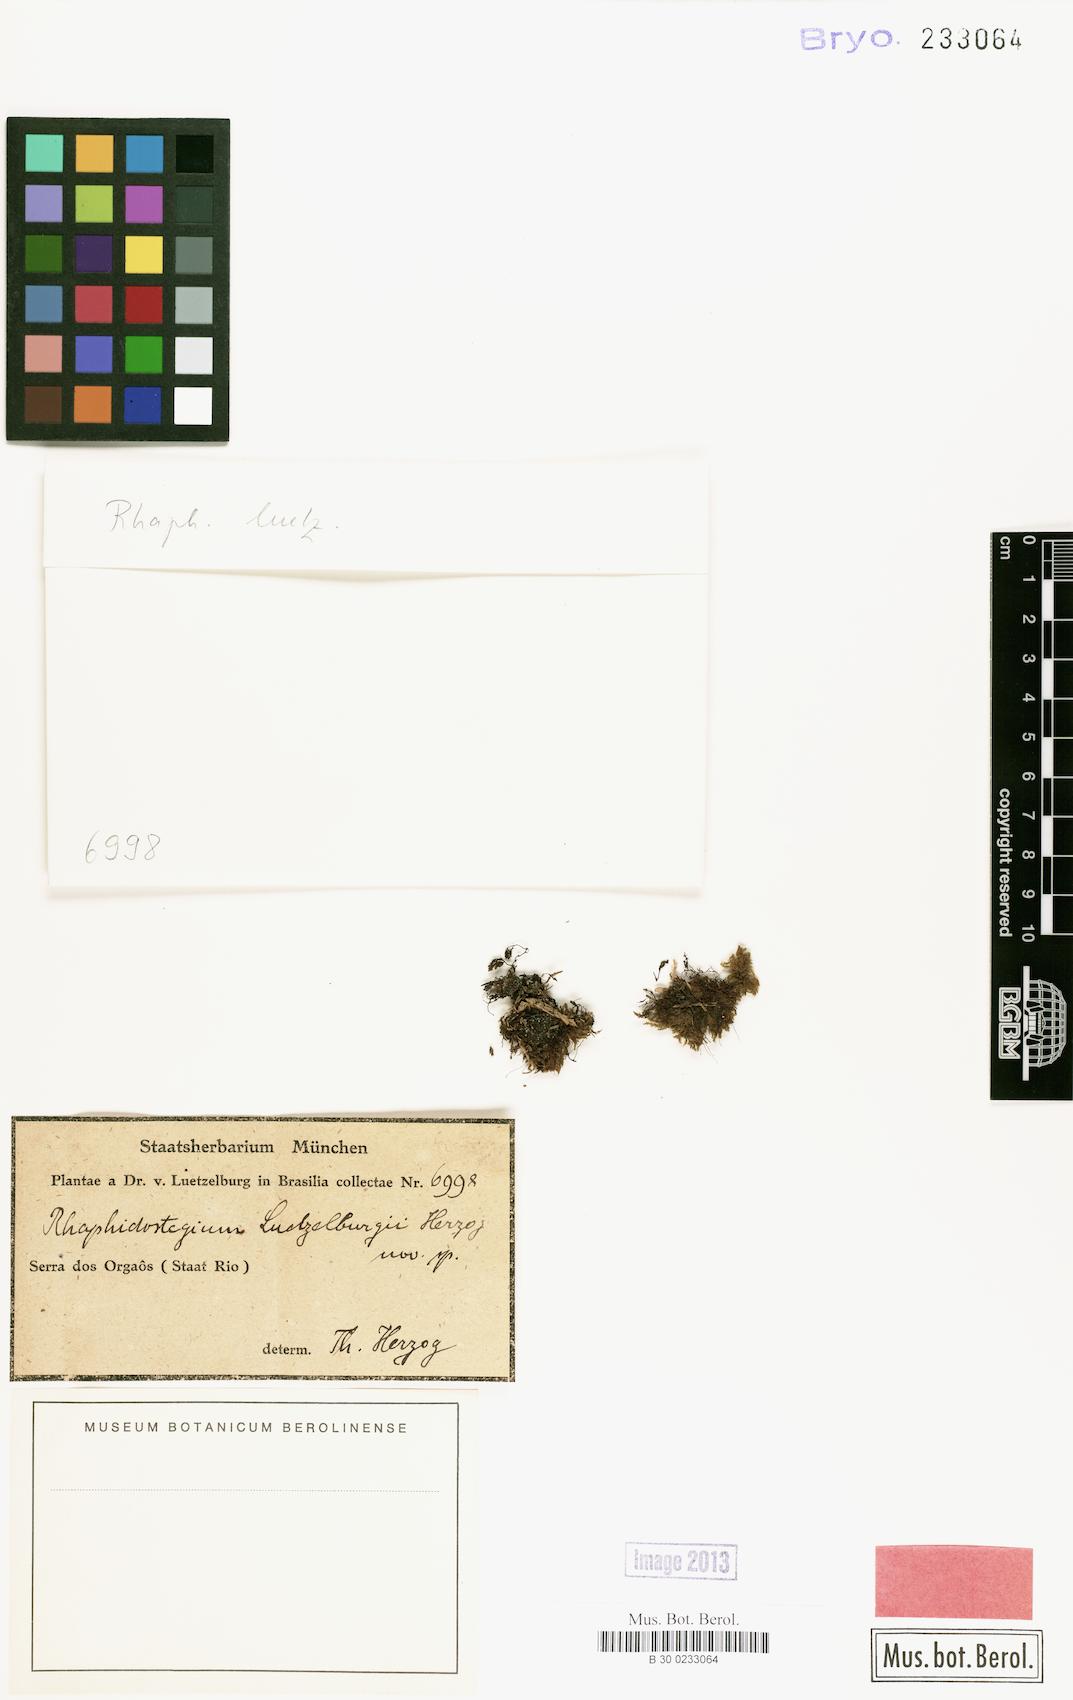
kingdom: Plantae
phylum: Bryophyta
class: Bryopsida
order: Hypnales
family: Sematophyllaceae
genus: Trichosteleum
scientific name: Trichosteleum glaziovii
